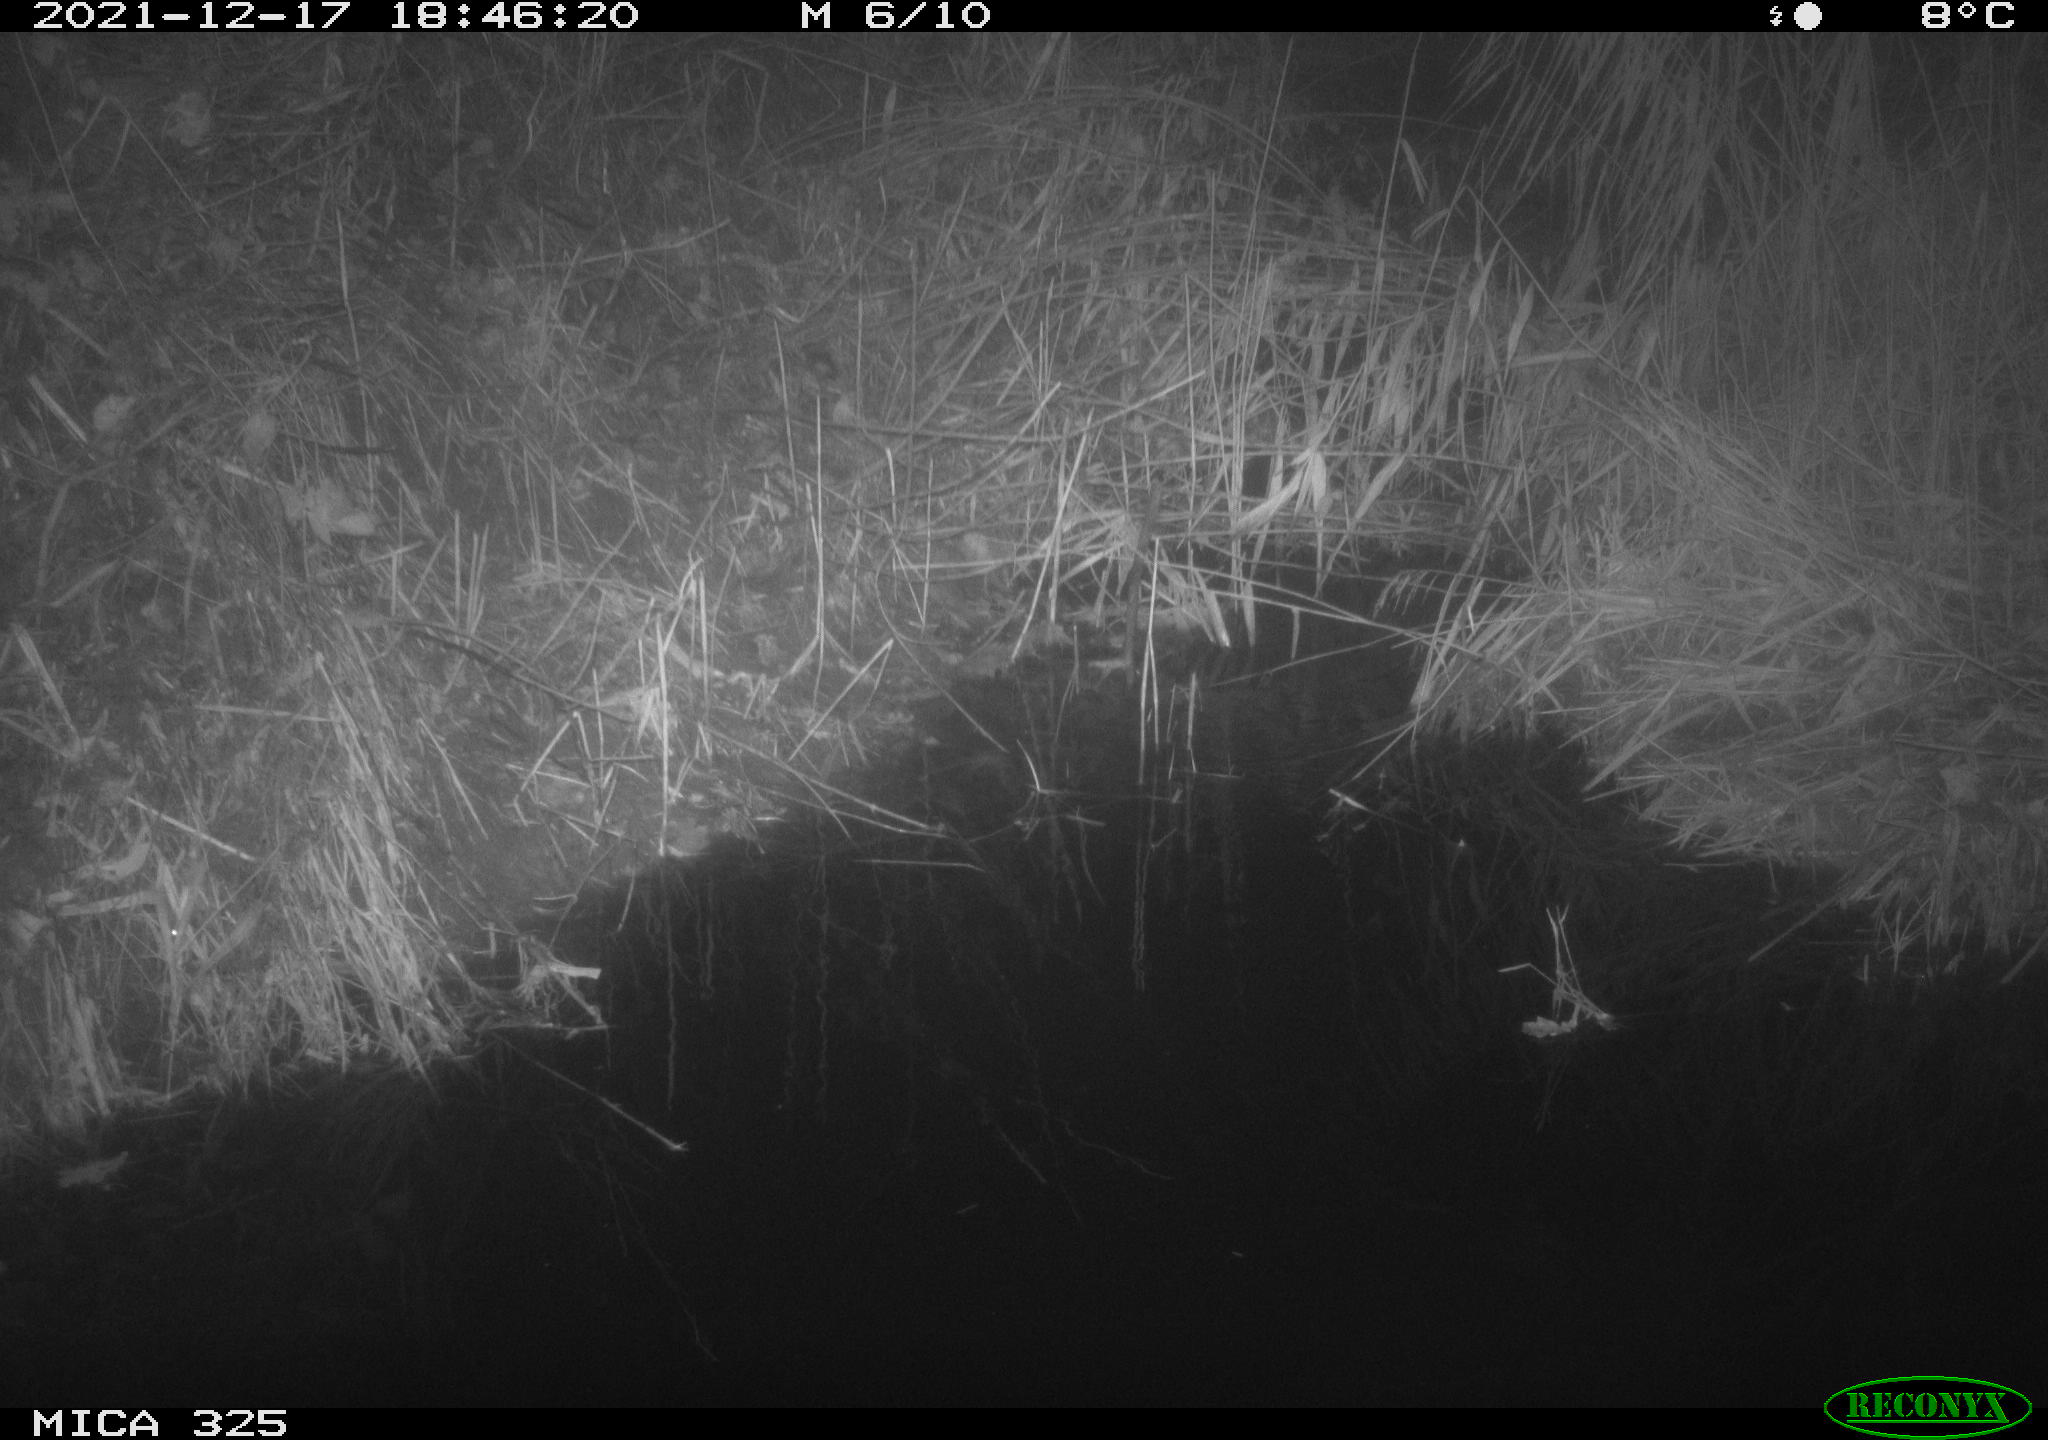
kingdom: Animalia
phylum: Chordata
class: Mammalia
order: Rodentia
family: Muridae
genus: Rattus
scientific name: Rattus norvegicus
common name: Brown rat
